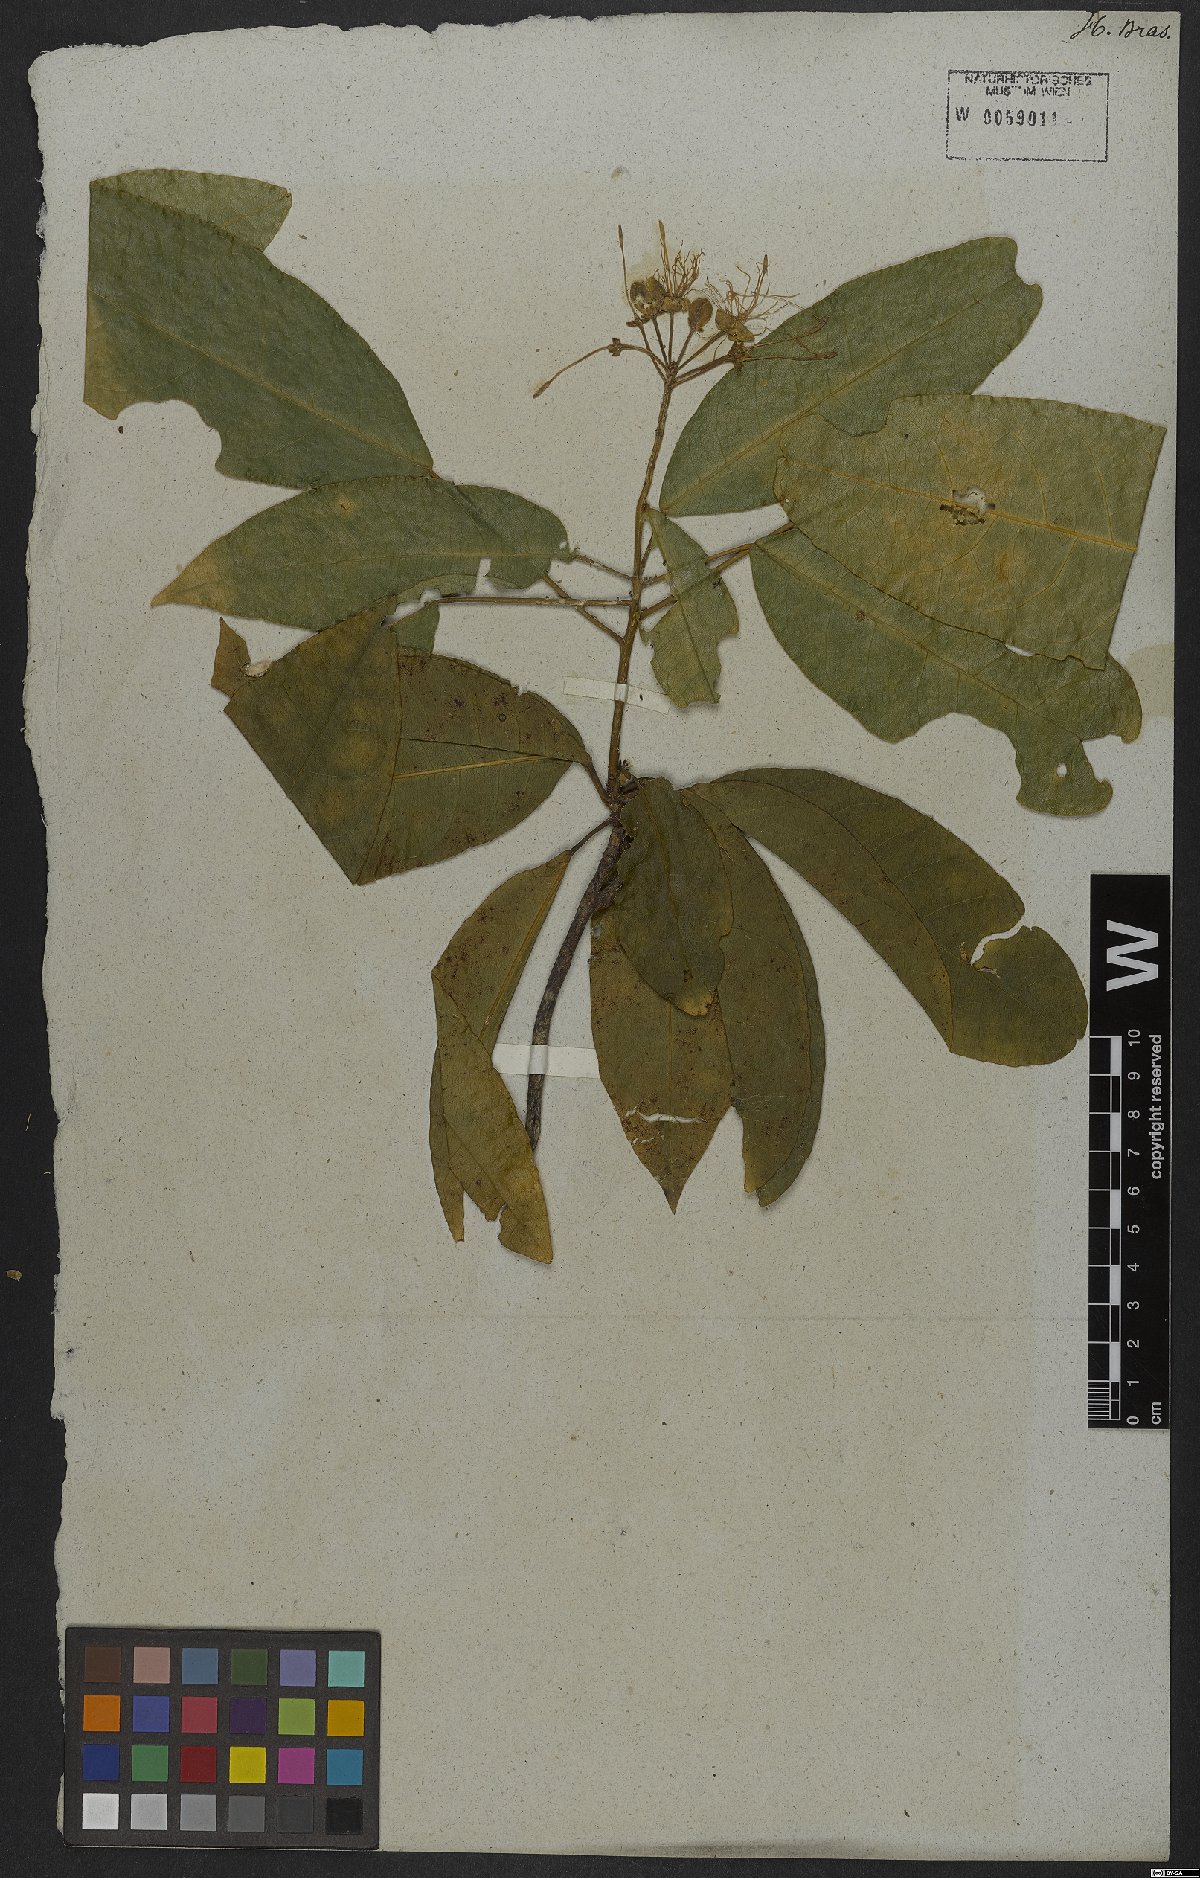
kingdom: Plantae
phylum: Tracheophyta
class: Magnoliopsida
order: Brassicales
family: Capparaceae
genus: Cynophalla
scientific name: Cynophalla flexuosa
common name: Capertree
